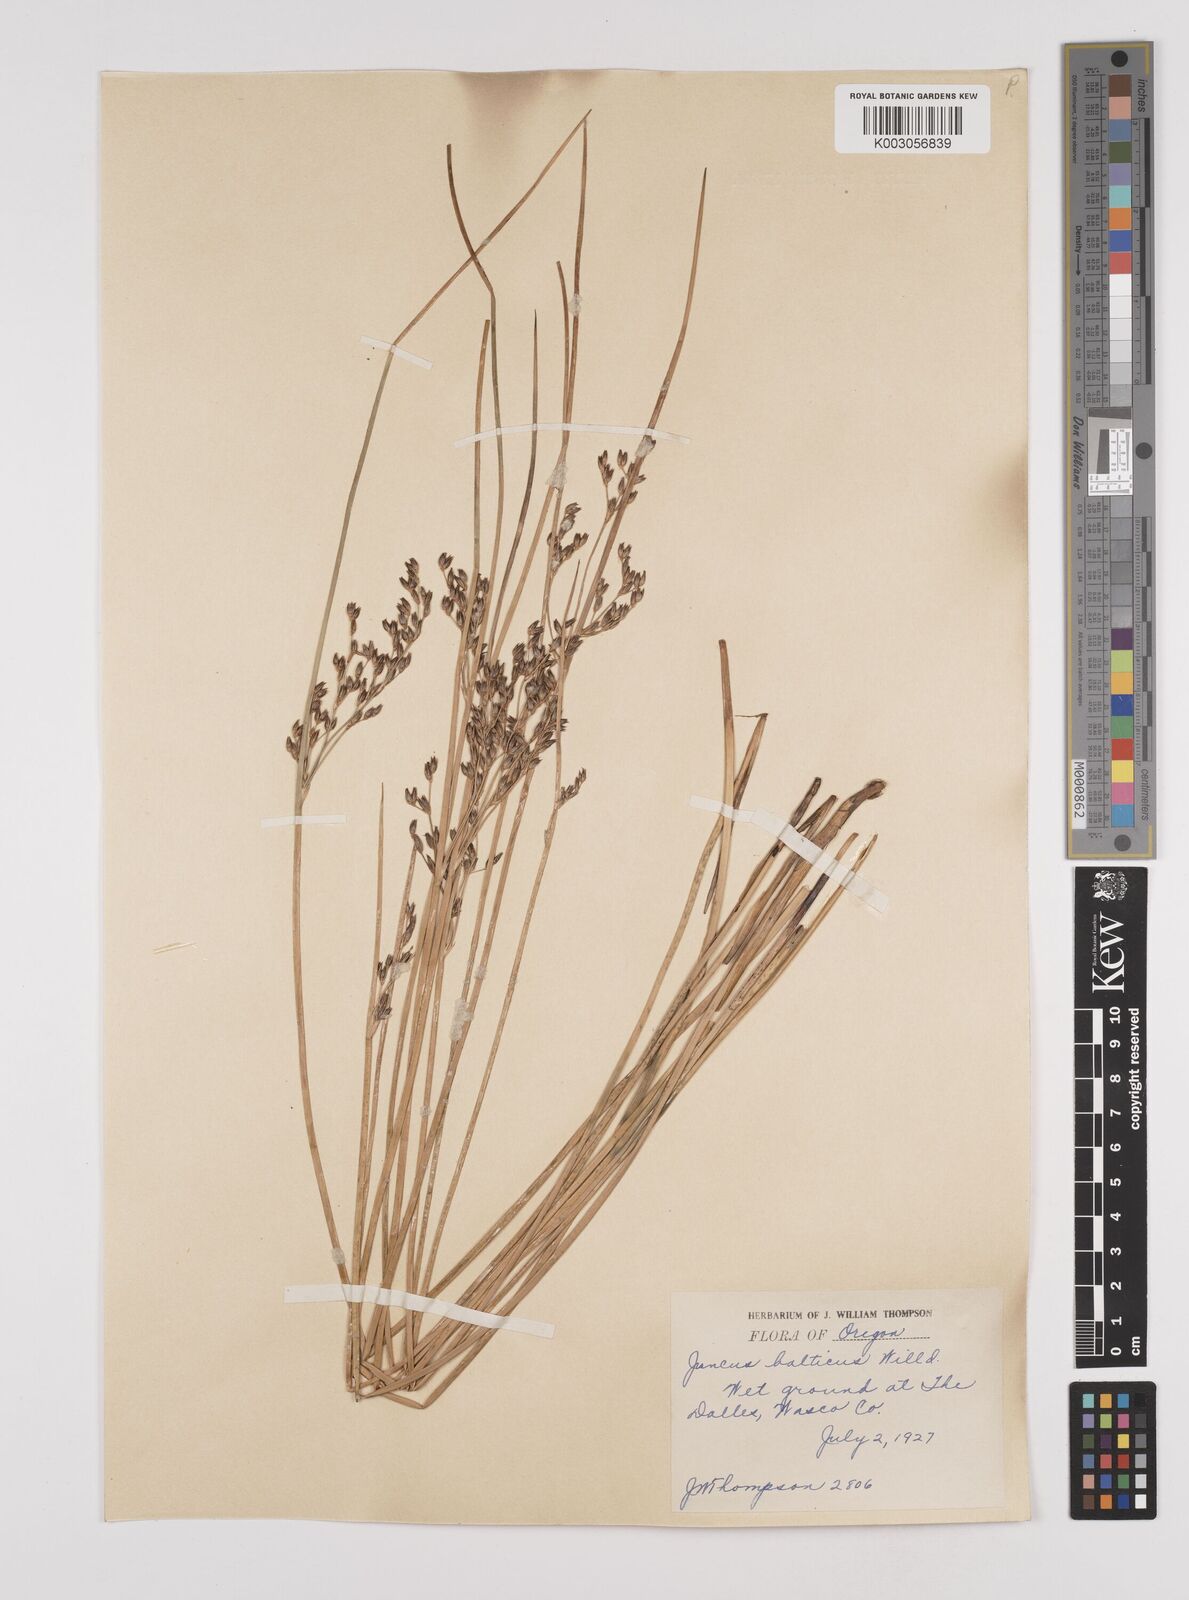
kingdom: Plantae
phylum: Tracheophyta
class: Liliopsida
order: Poales
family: Juncaceae
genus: Juncus
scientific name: Juncus balticus
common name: Baltic rush
